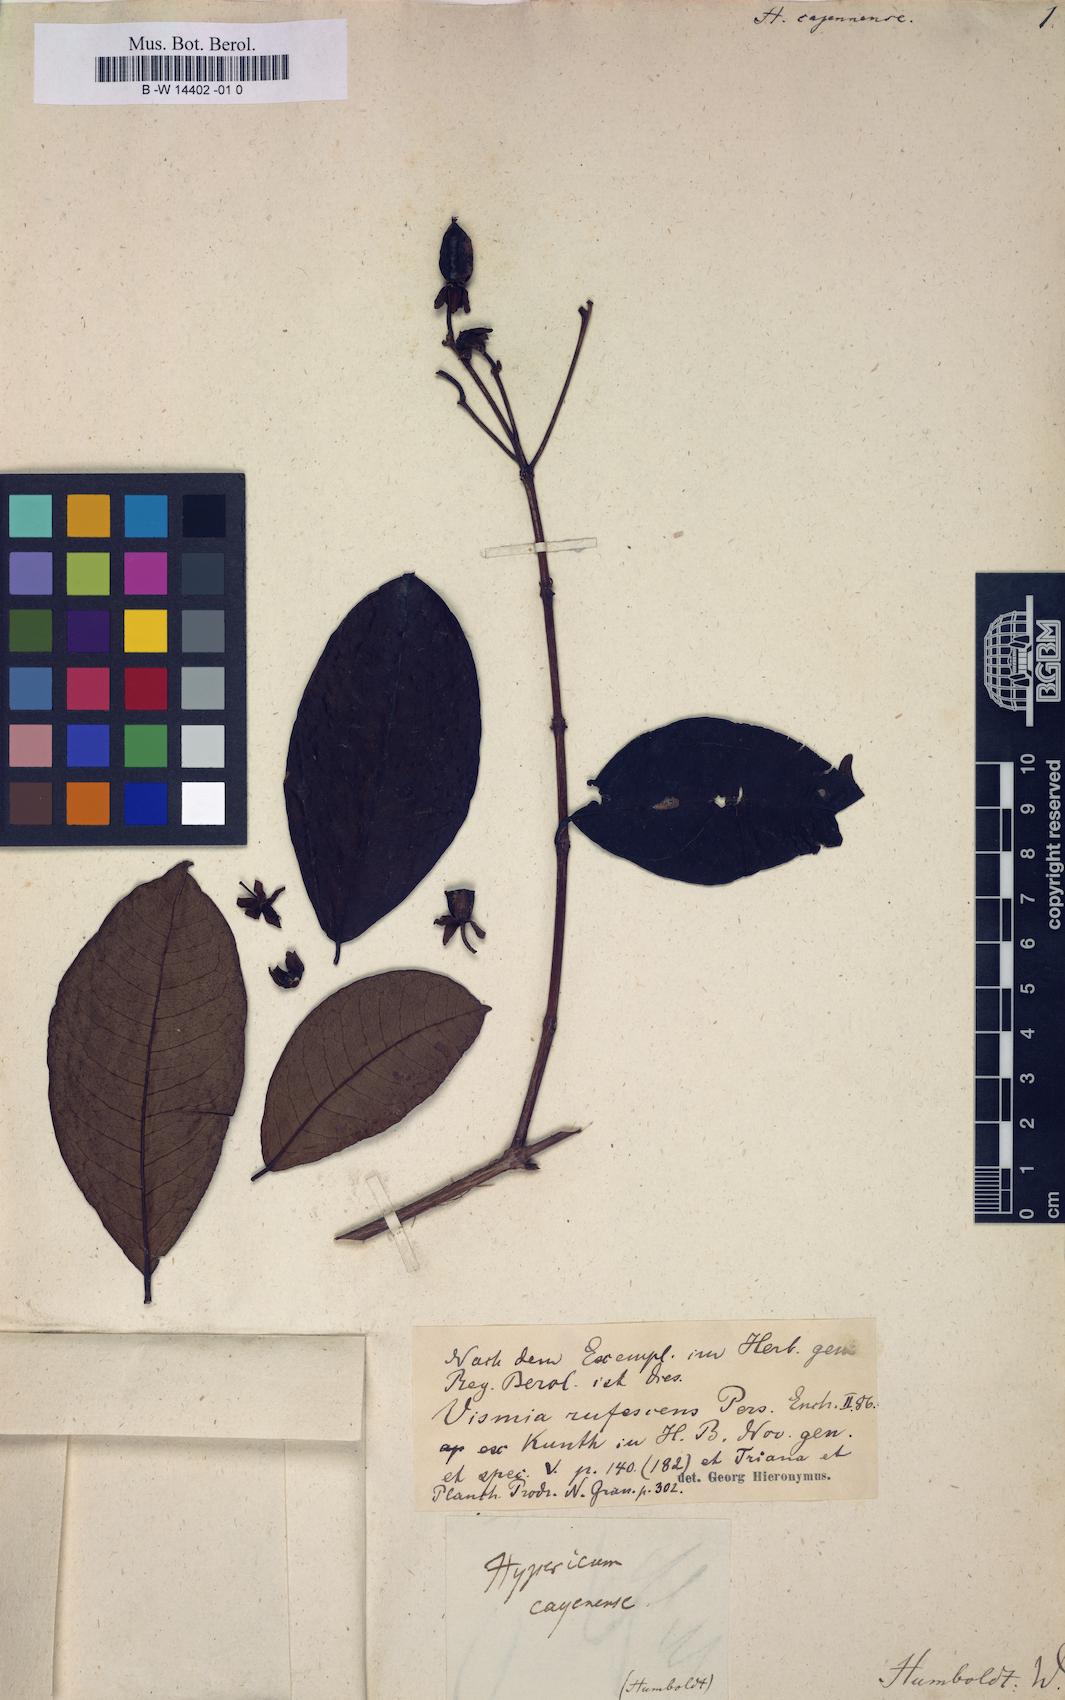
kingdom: Plantae
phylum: Tracheophyta
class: Magnoliopsida
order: Malpighiales
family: Hypericaceae
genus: Hypericum
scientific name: Hypericum cajennense
